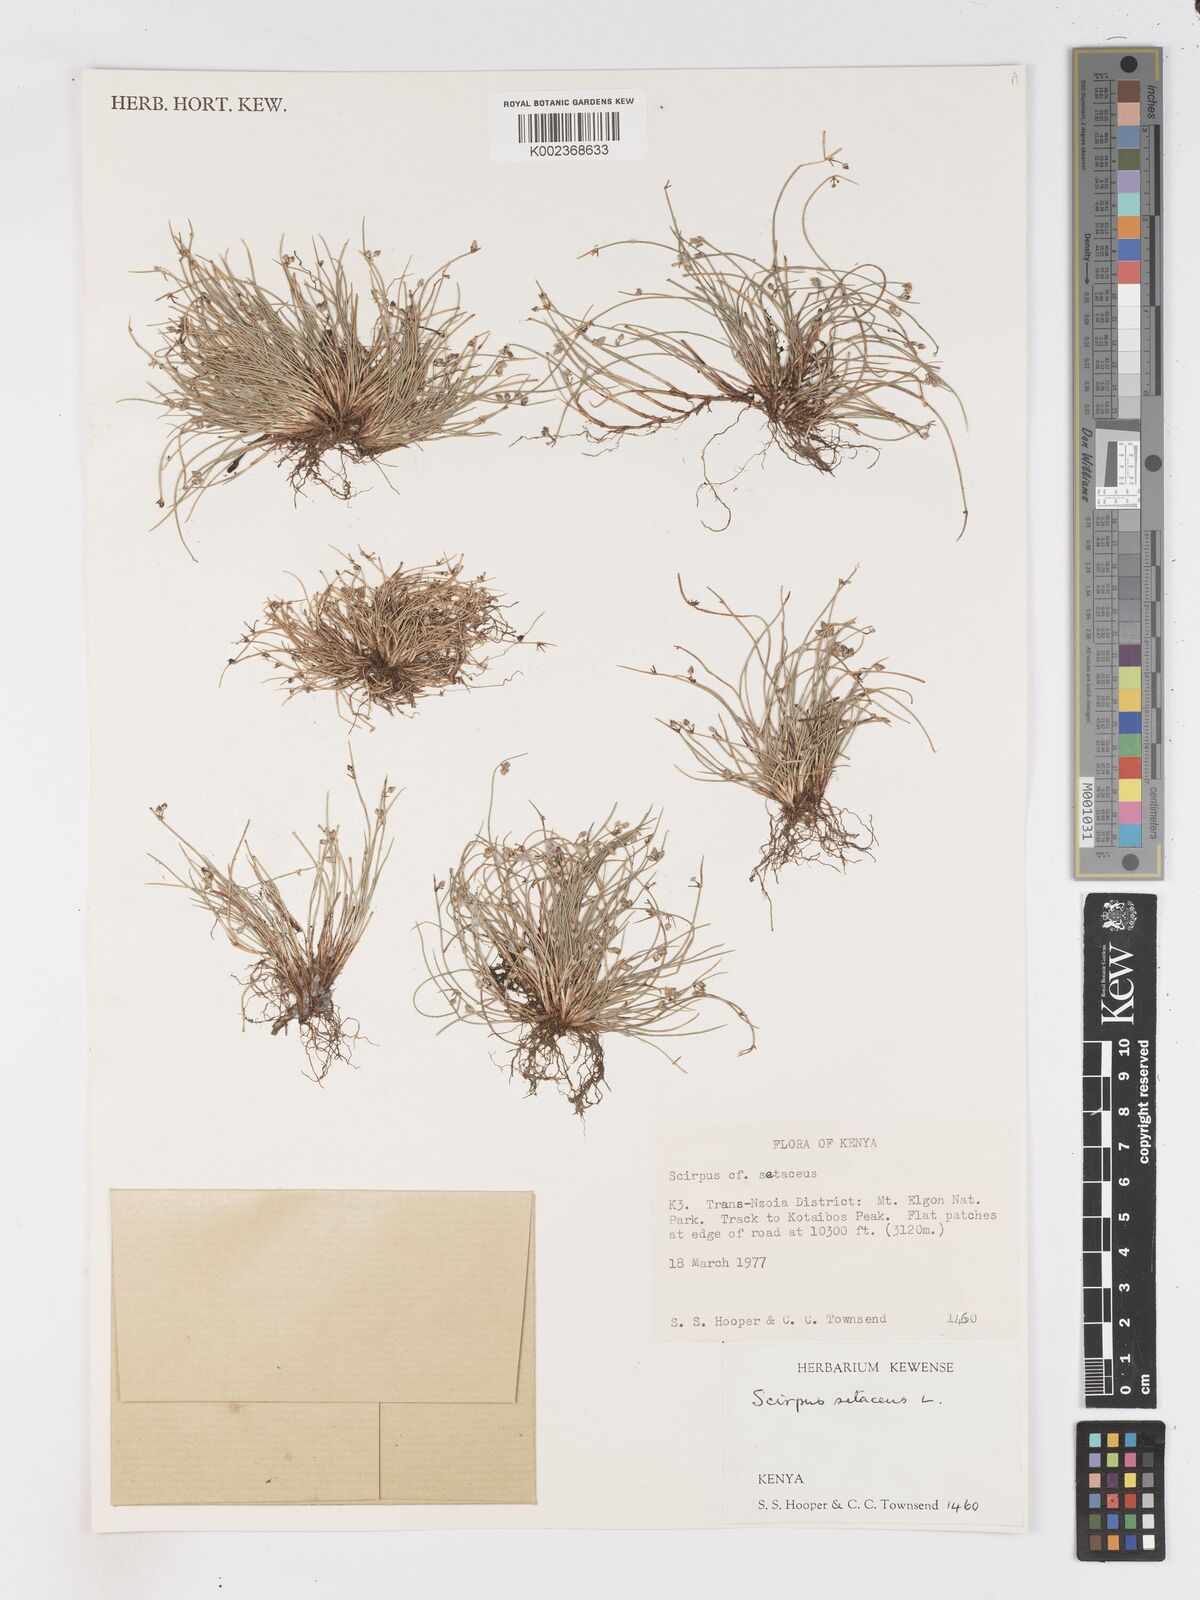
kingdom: Plantae
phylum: Tracheophyta
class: Liliopsida
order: Poales
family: Cyperaceae
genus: Isolepis
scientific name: Isolepis setacea
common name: Bristle club-rush
